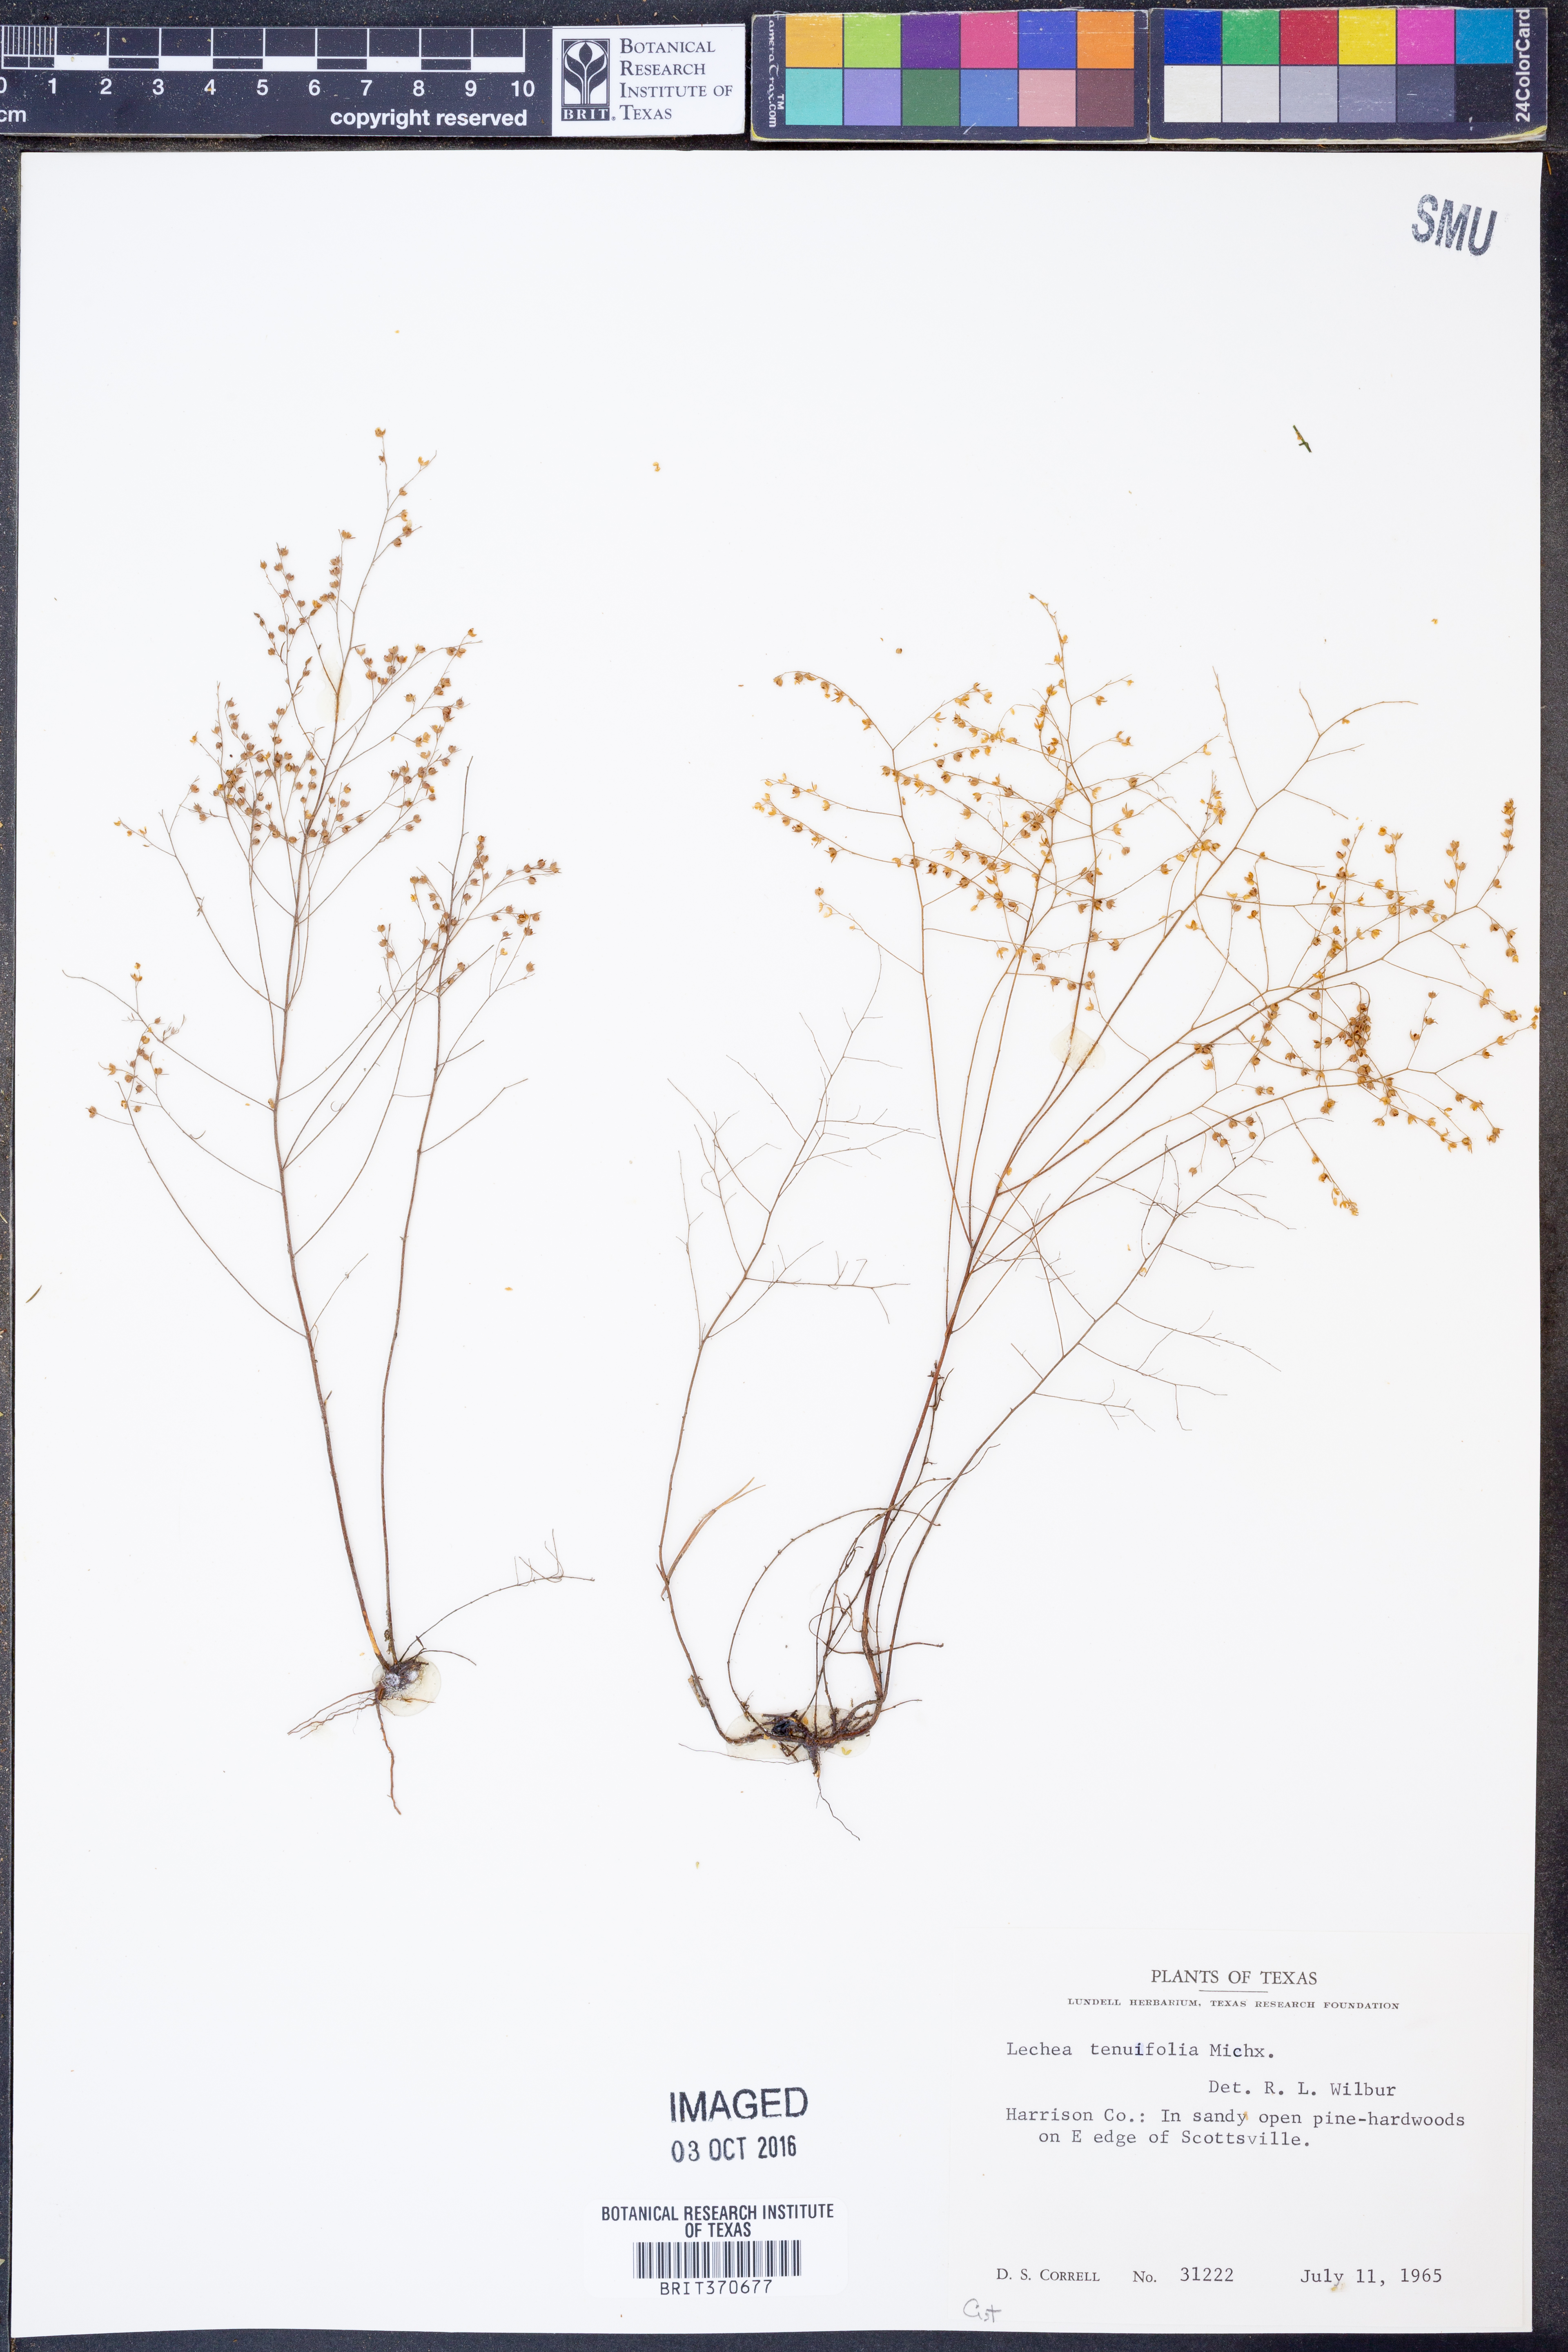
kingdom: Plantae
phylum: Tracheophyta
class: Magnoliopsida
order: Malvales
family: Cistaceae
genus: Lechea
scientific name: Lechea tenuifolia
